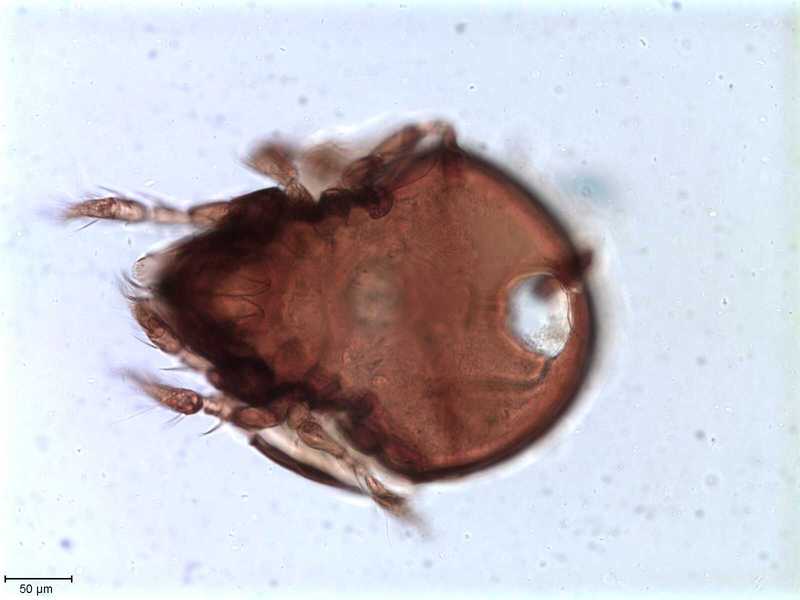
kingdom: Animalia
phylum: Arthropoda
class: Arachnida
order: Sarcoptiformes
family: Tegoribatidae
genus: Plakoribates
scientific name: Plakoribates multicuspidatus
